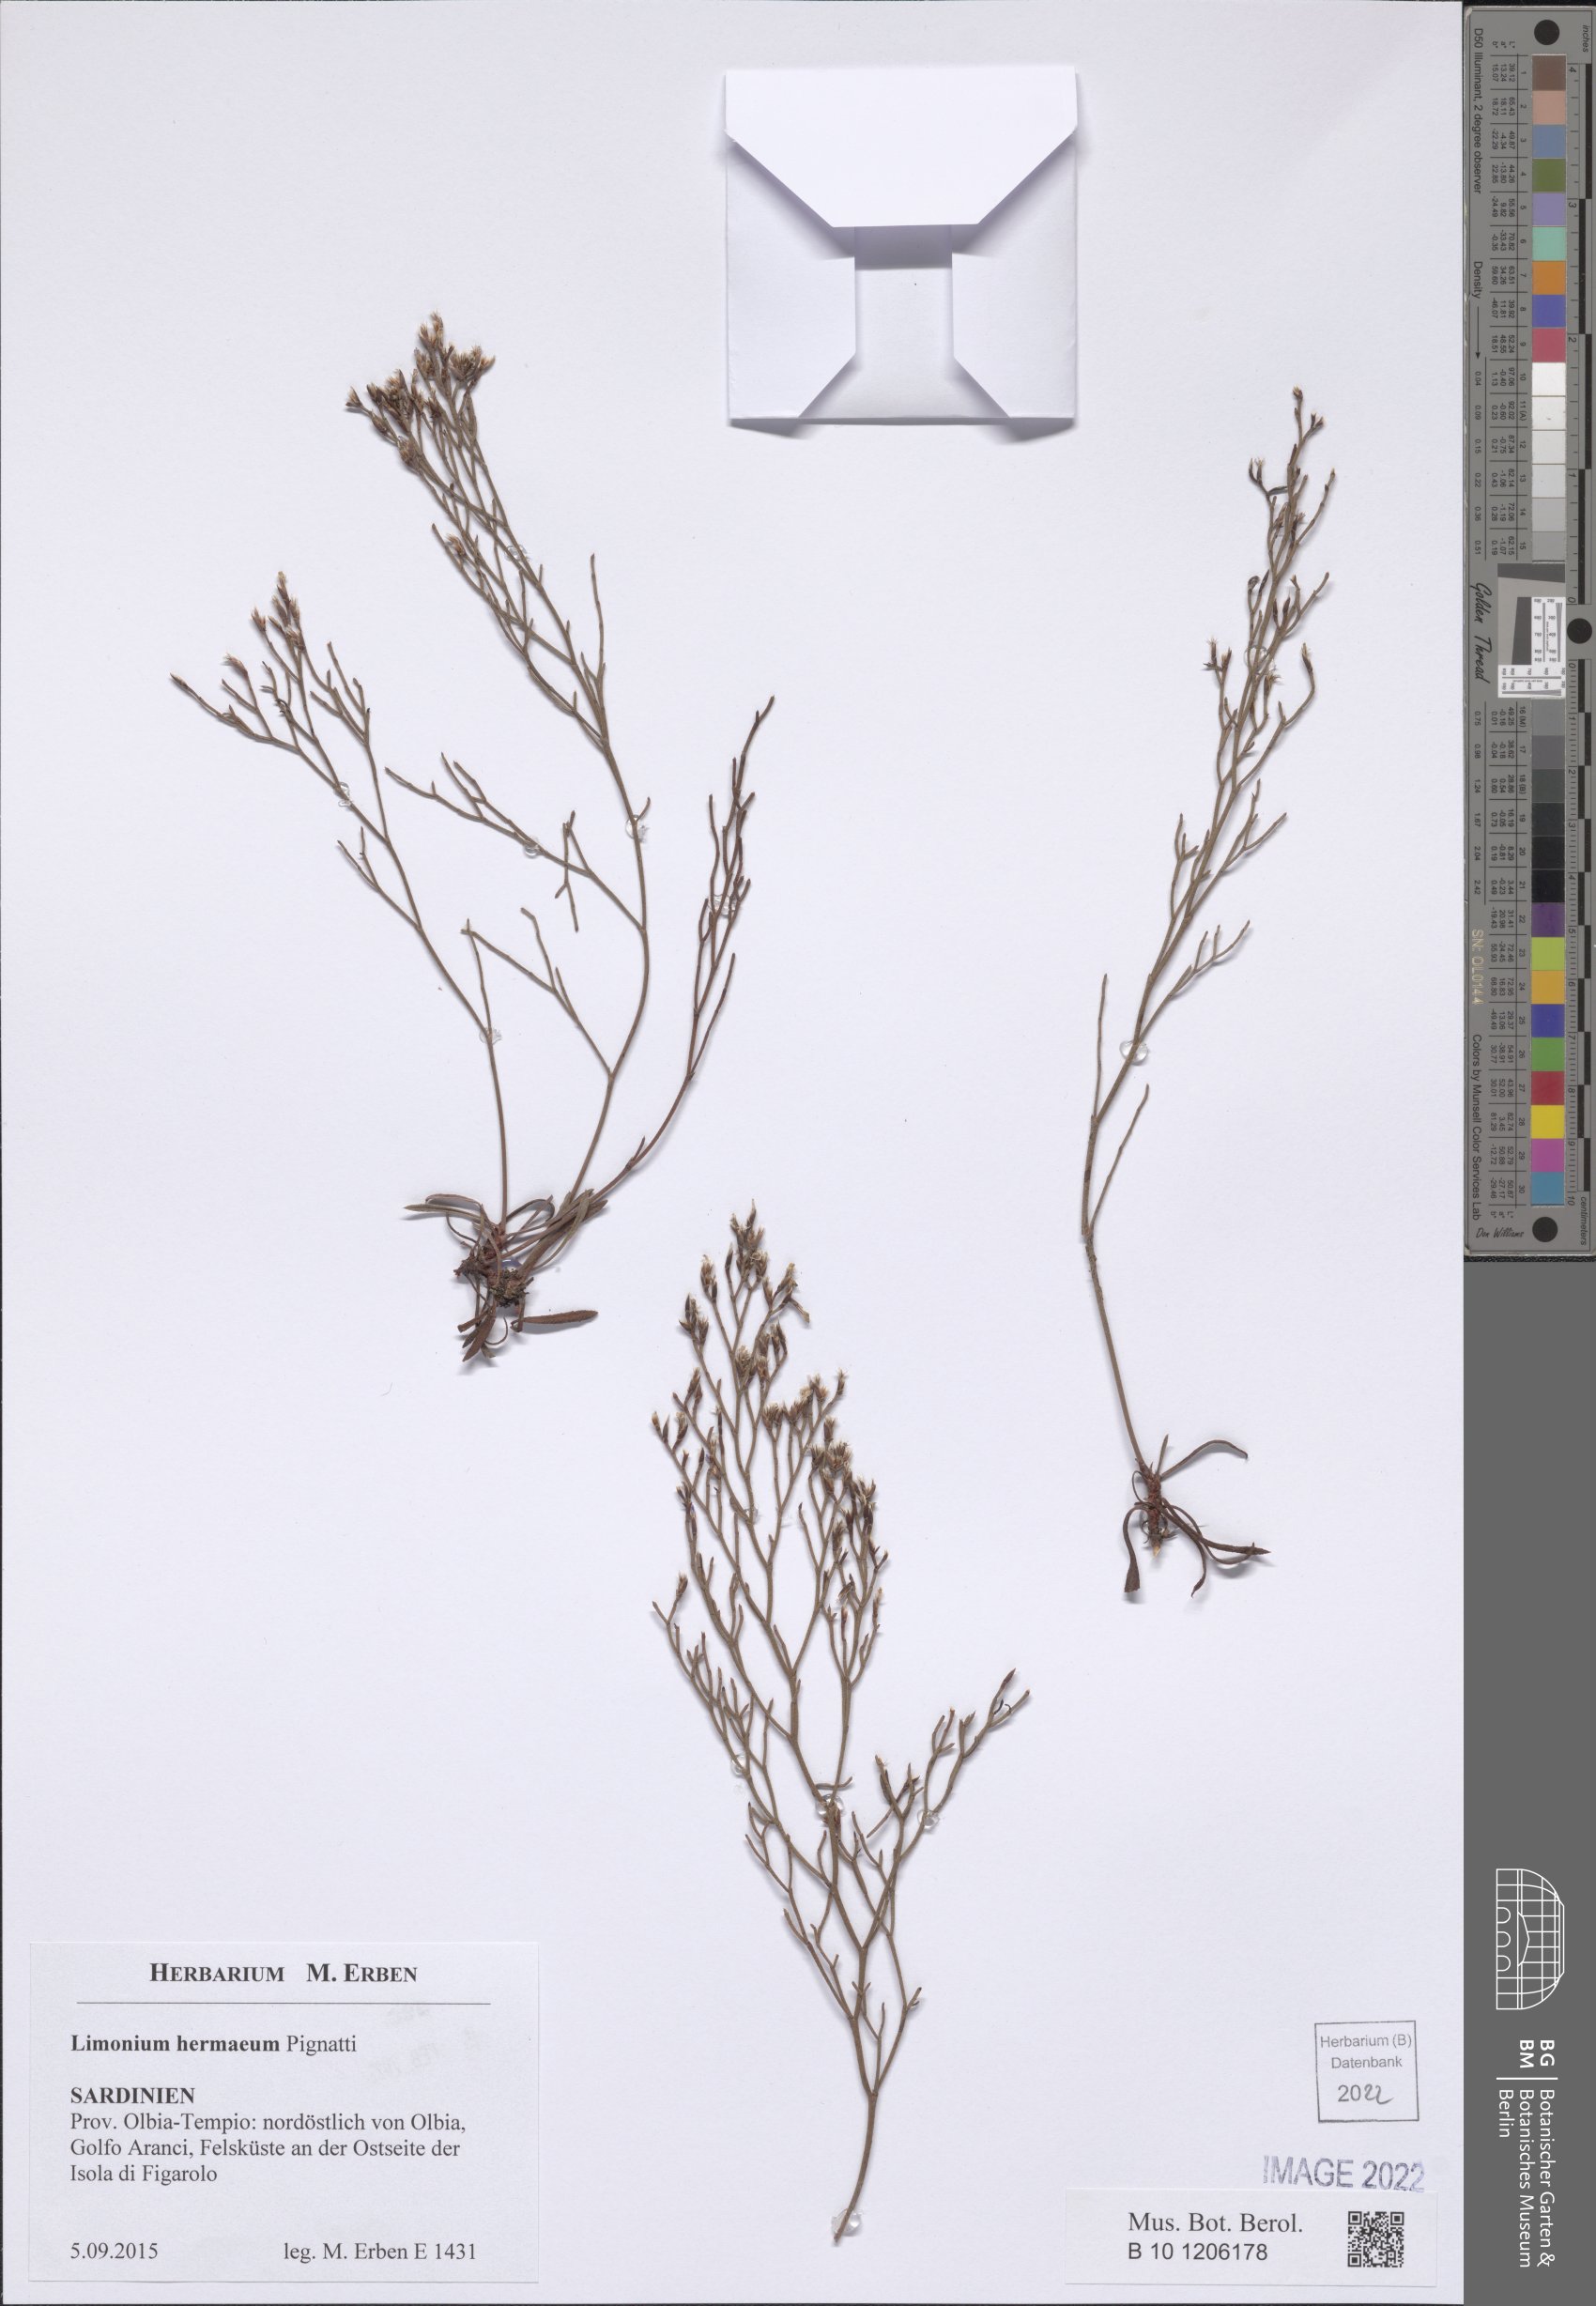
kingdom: Plantae
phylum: Tracheophyta
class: Magnoliopsida
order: Caryophyllales
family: Plumbaginaceae
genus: Limonium
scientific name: Limonium hermaeum
